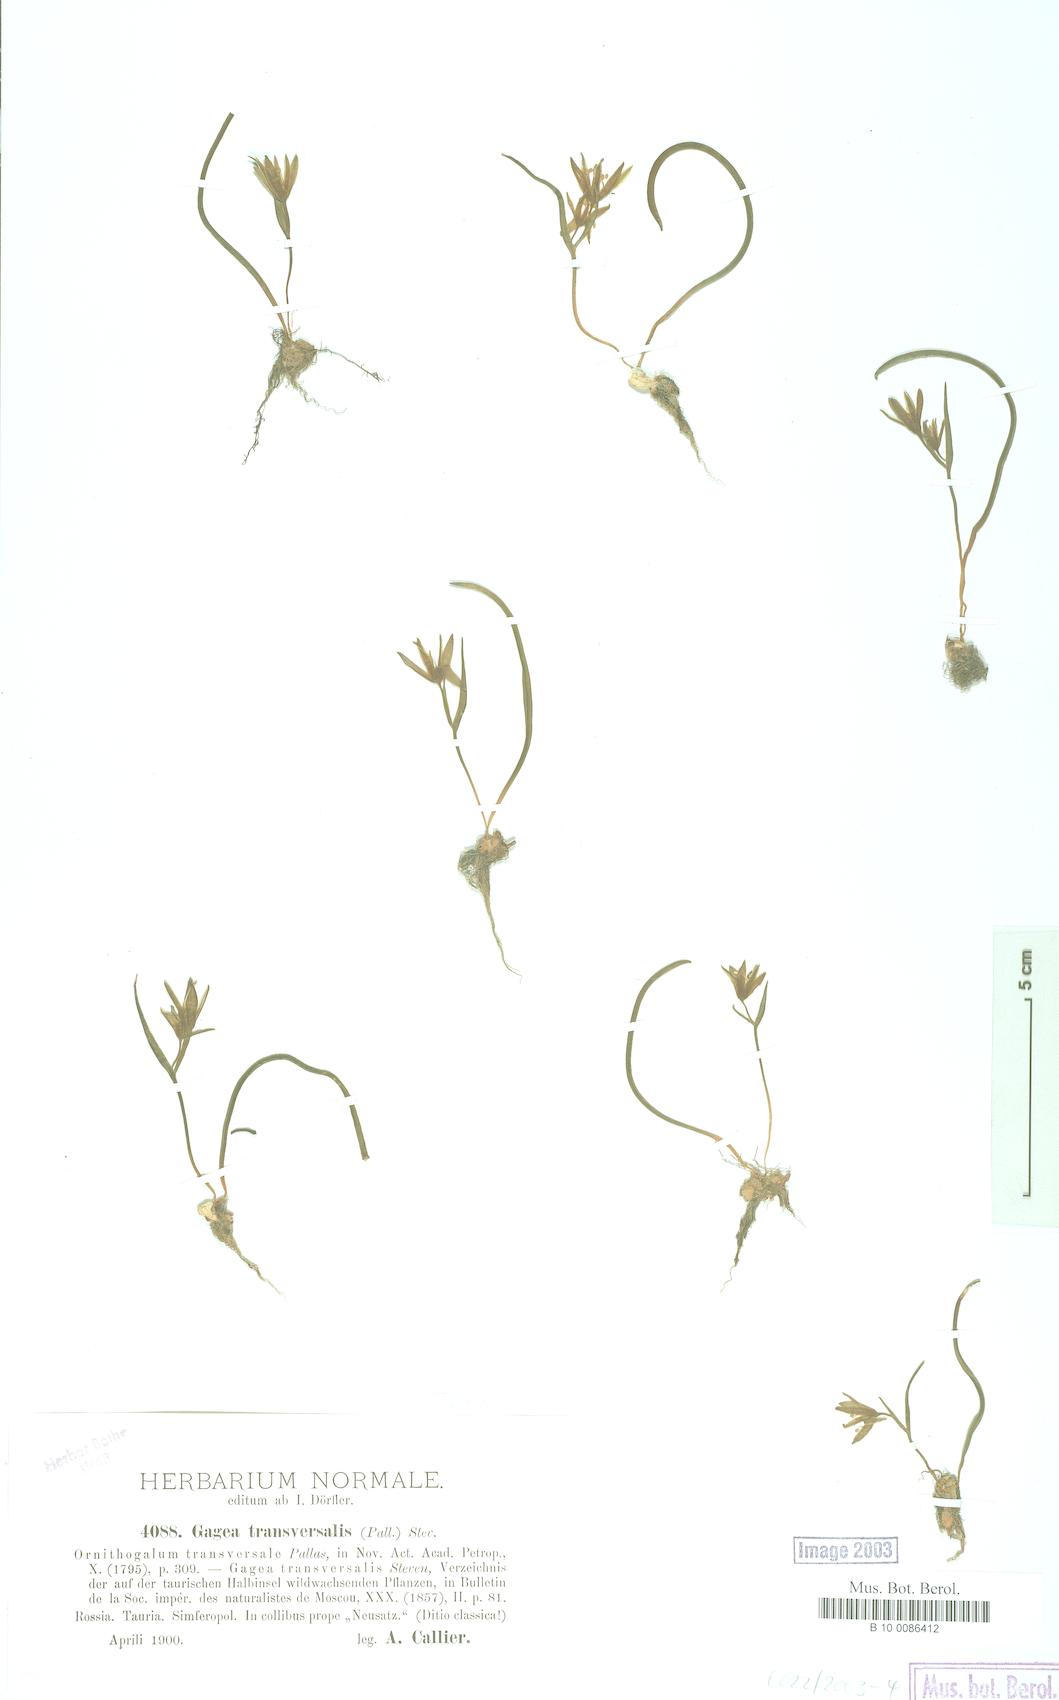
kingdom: Plantae
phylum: Tracheophyta
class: Liliopsida
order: Liliales
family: Liliaceae
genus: Gagea
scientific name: Gagea transversalis
